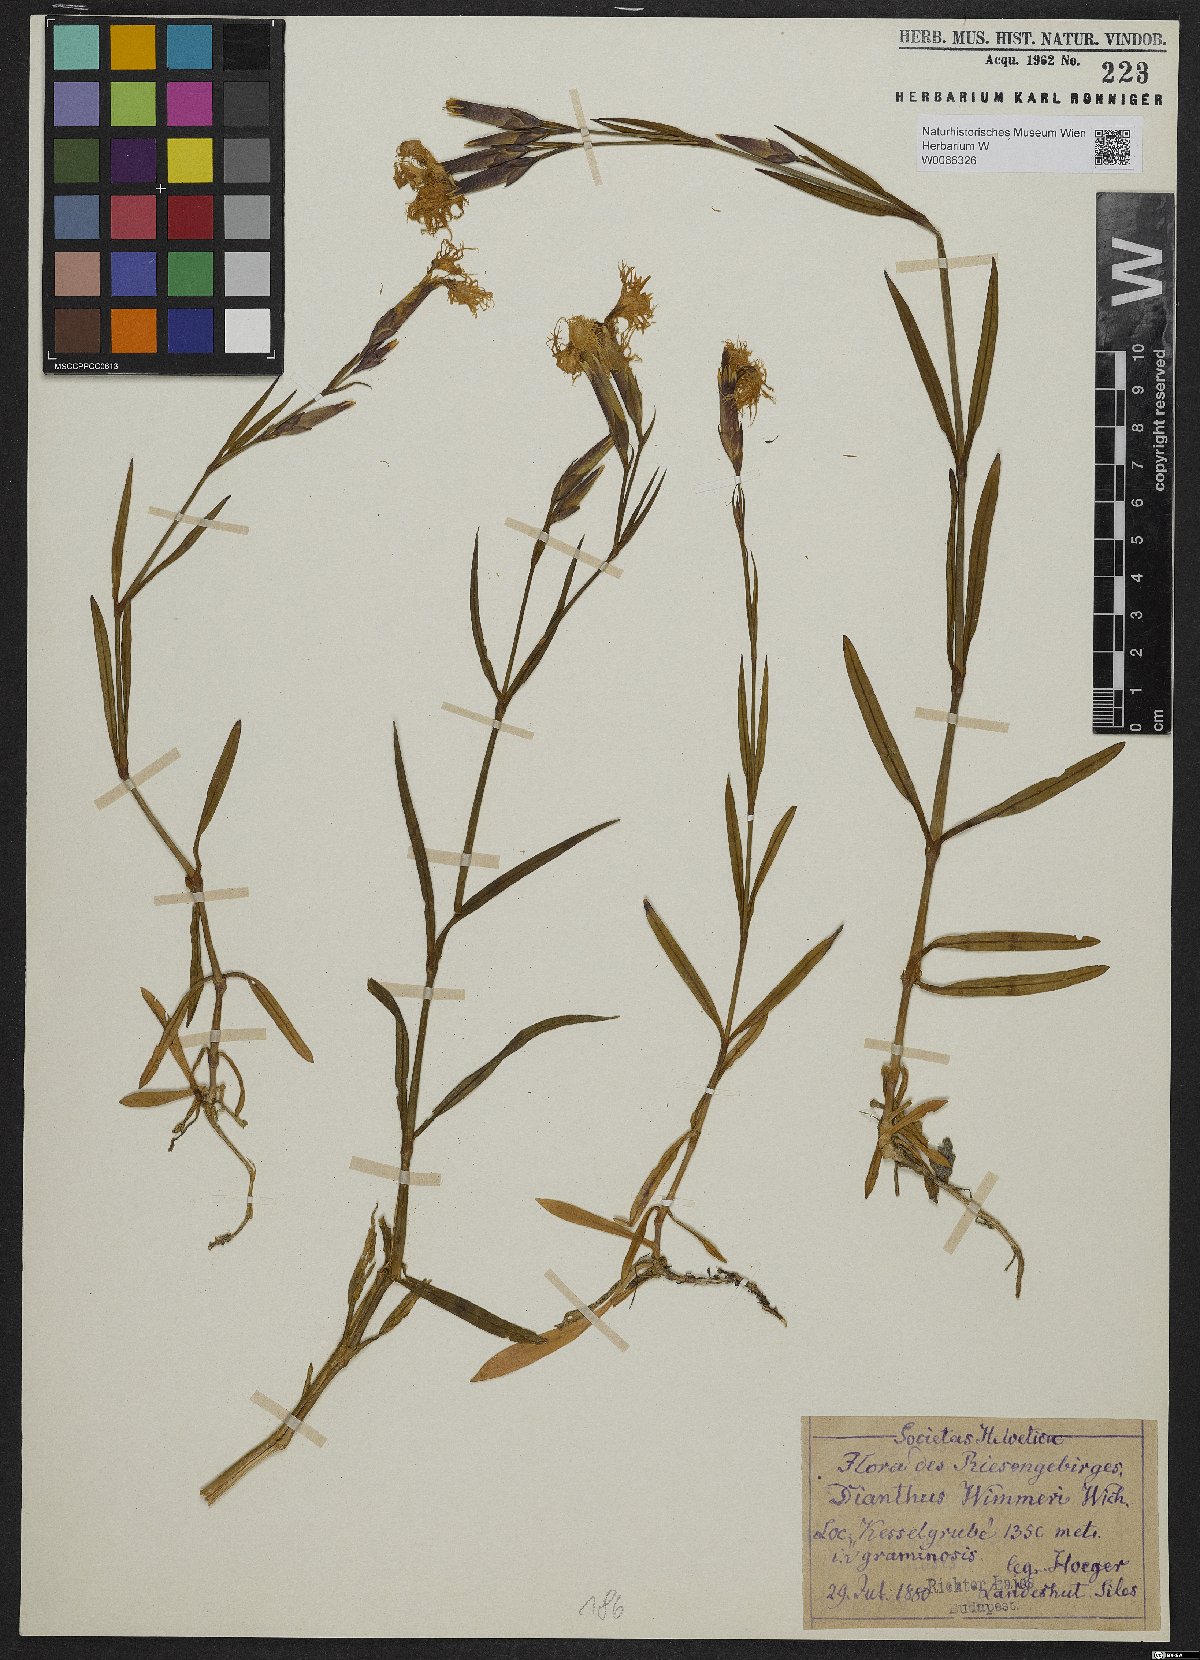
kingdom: Plantae
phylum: Tracheophyta
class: Magnoliopsida
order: Caryophyllales
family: Caryophyllaceae
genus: Dianthus
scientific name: Dianthus superbus
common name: Fringed pink
